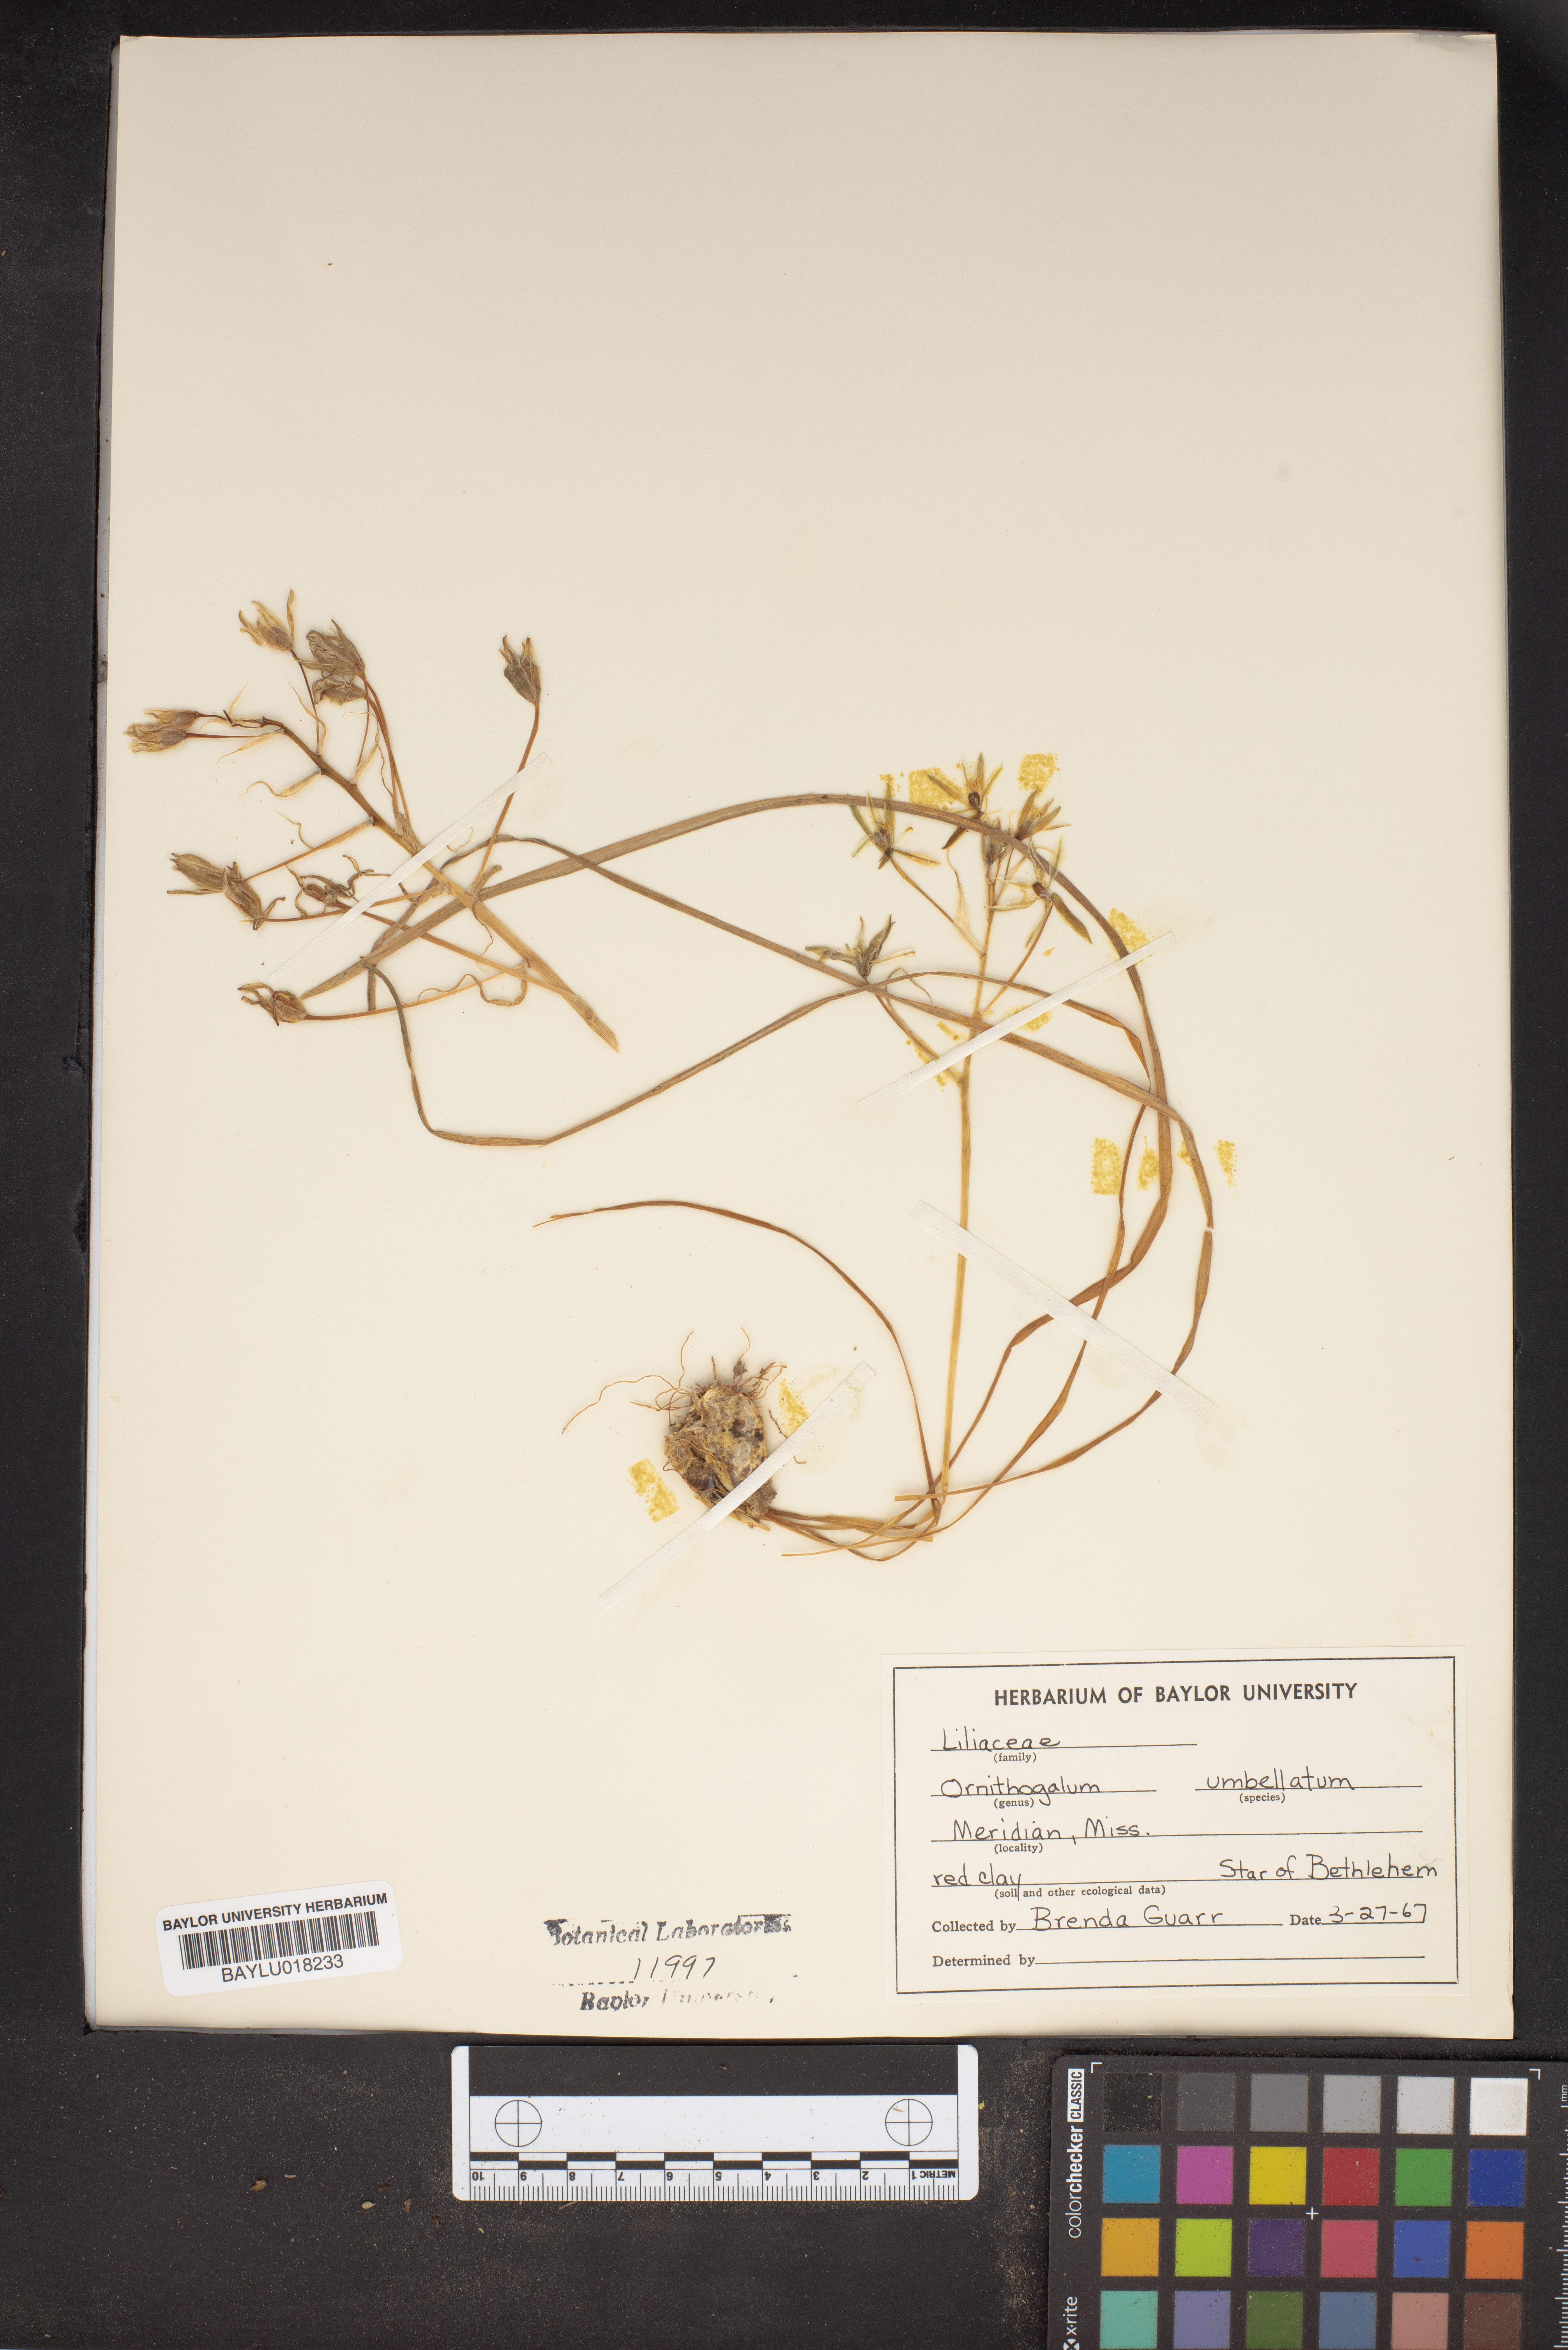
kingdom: Plantae
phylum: Tracheophyta
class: Liliopsida
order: Asparagales
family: Asparagaceae
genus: Ornithogalum
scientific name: Ornithogalum umbellatum
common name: Garden star-of-bethlehem
